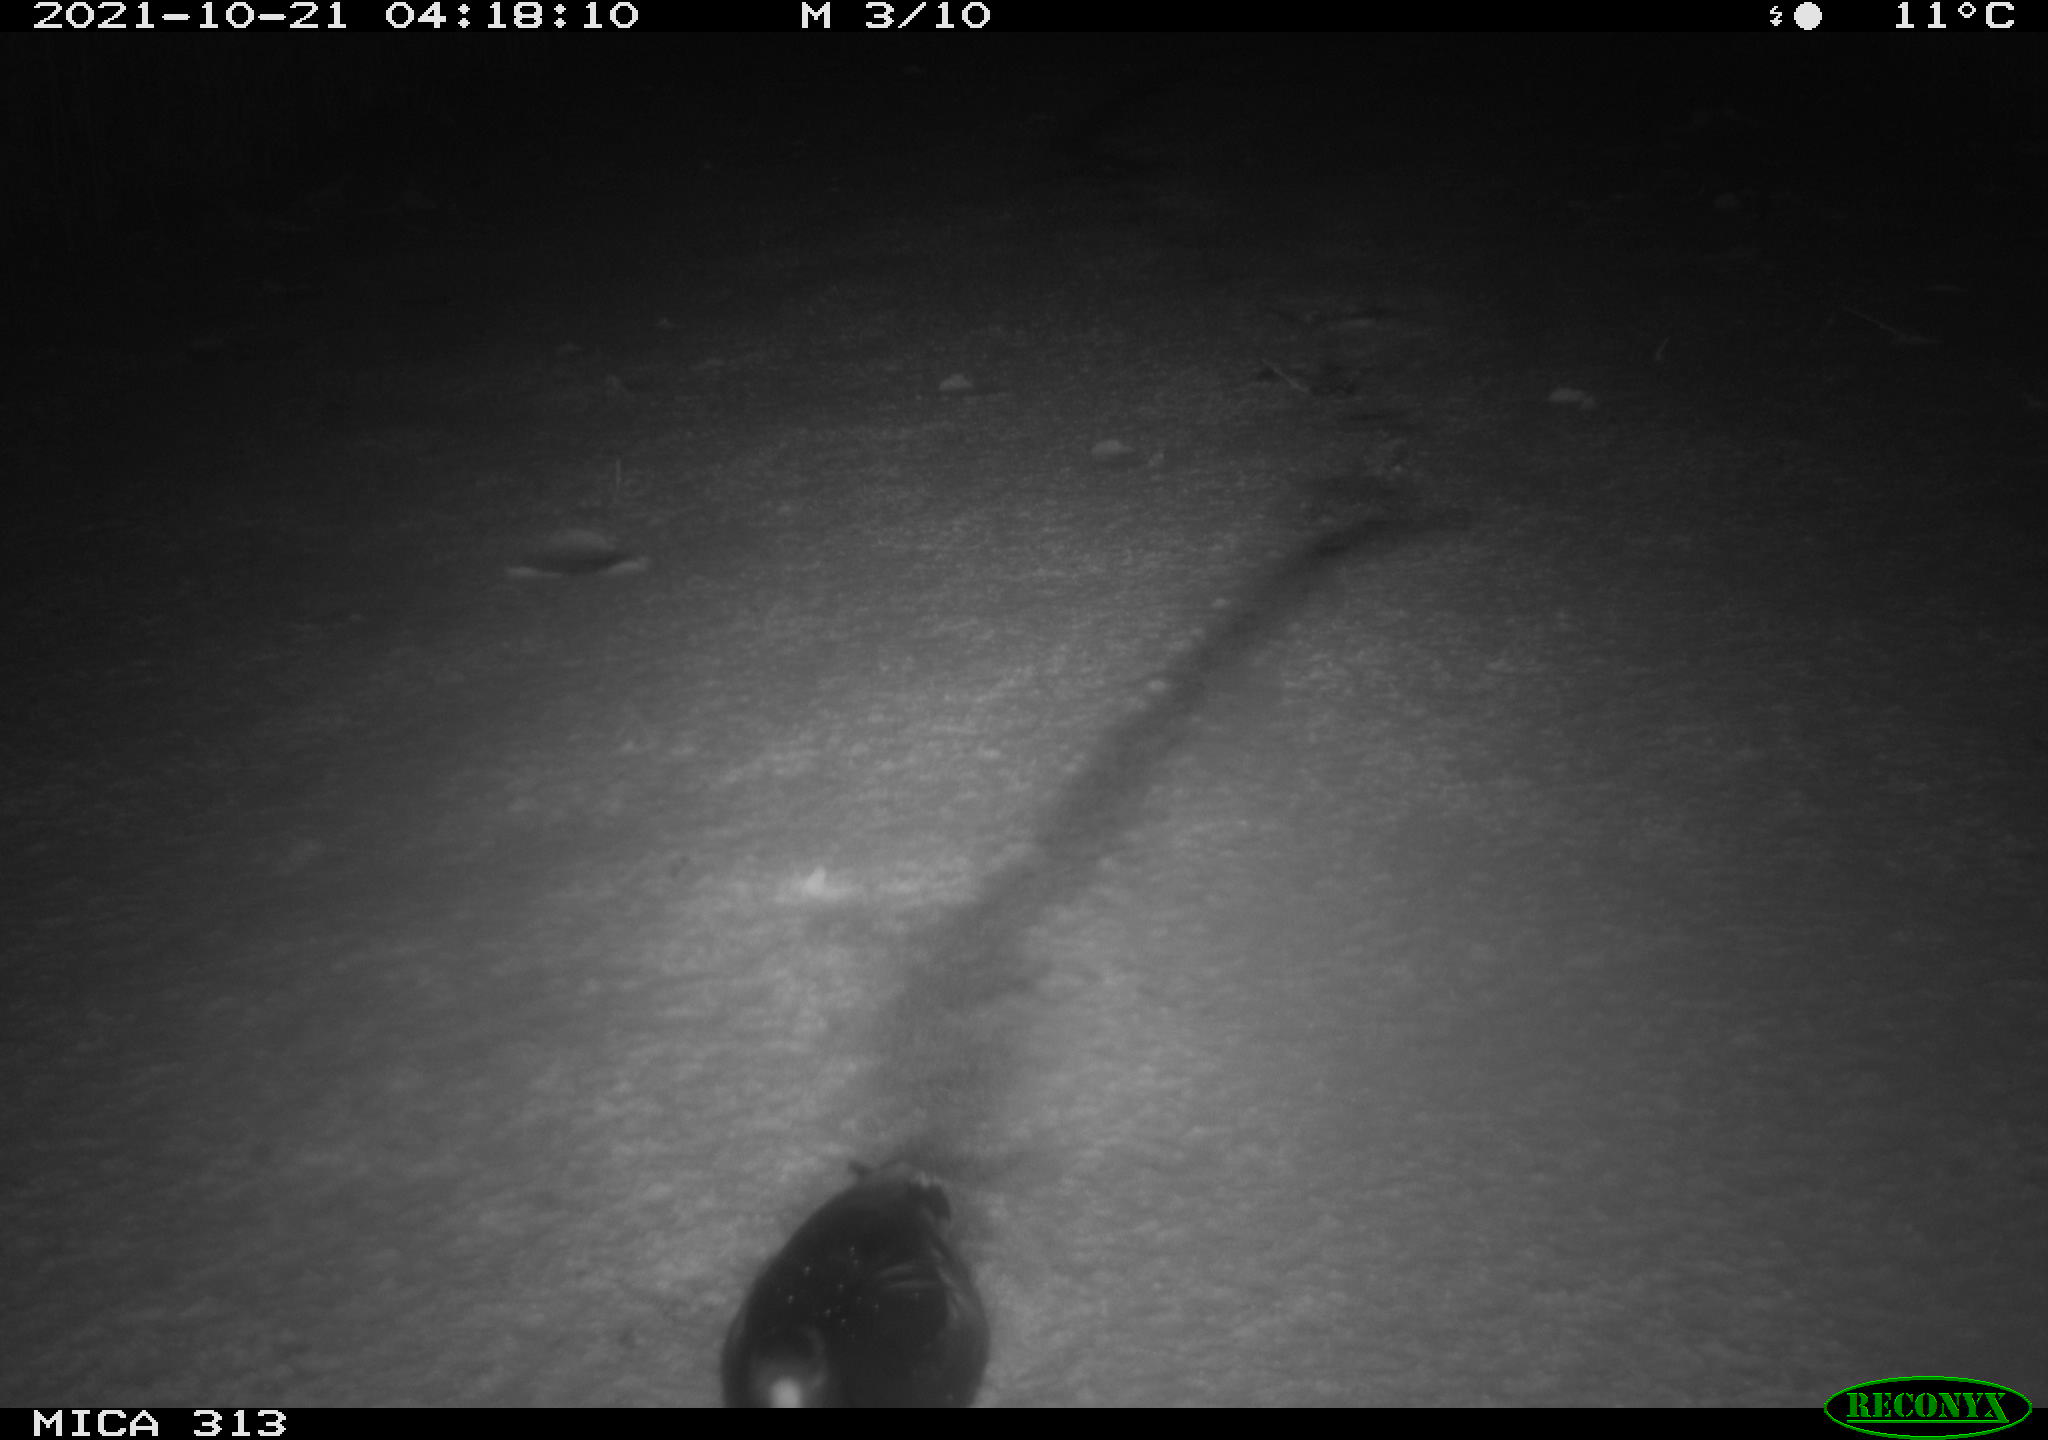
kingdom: Animalia
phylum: Chordata
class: Aves
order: Gruiformes
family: Rallidae
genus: Gallinula
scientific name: Gallinula chloropus
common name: Common moorhen
